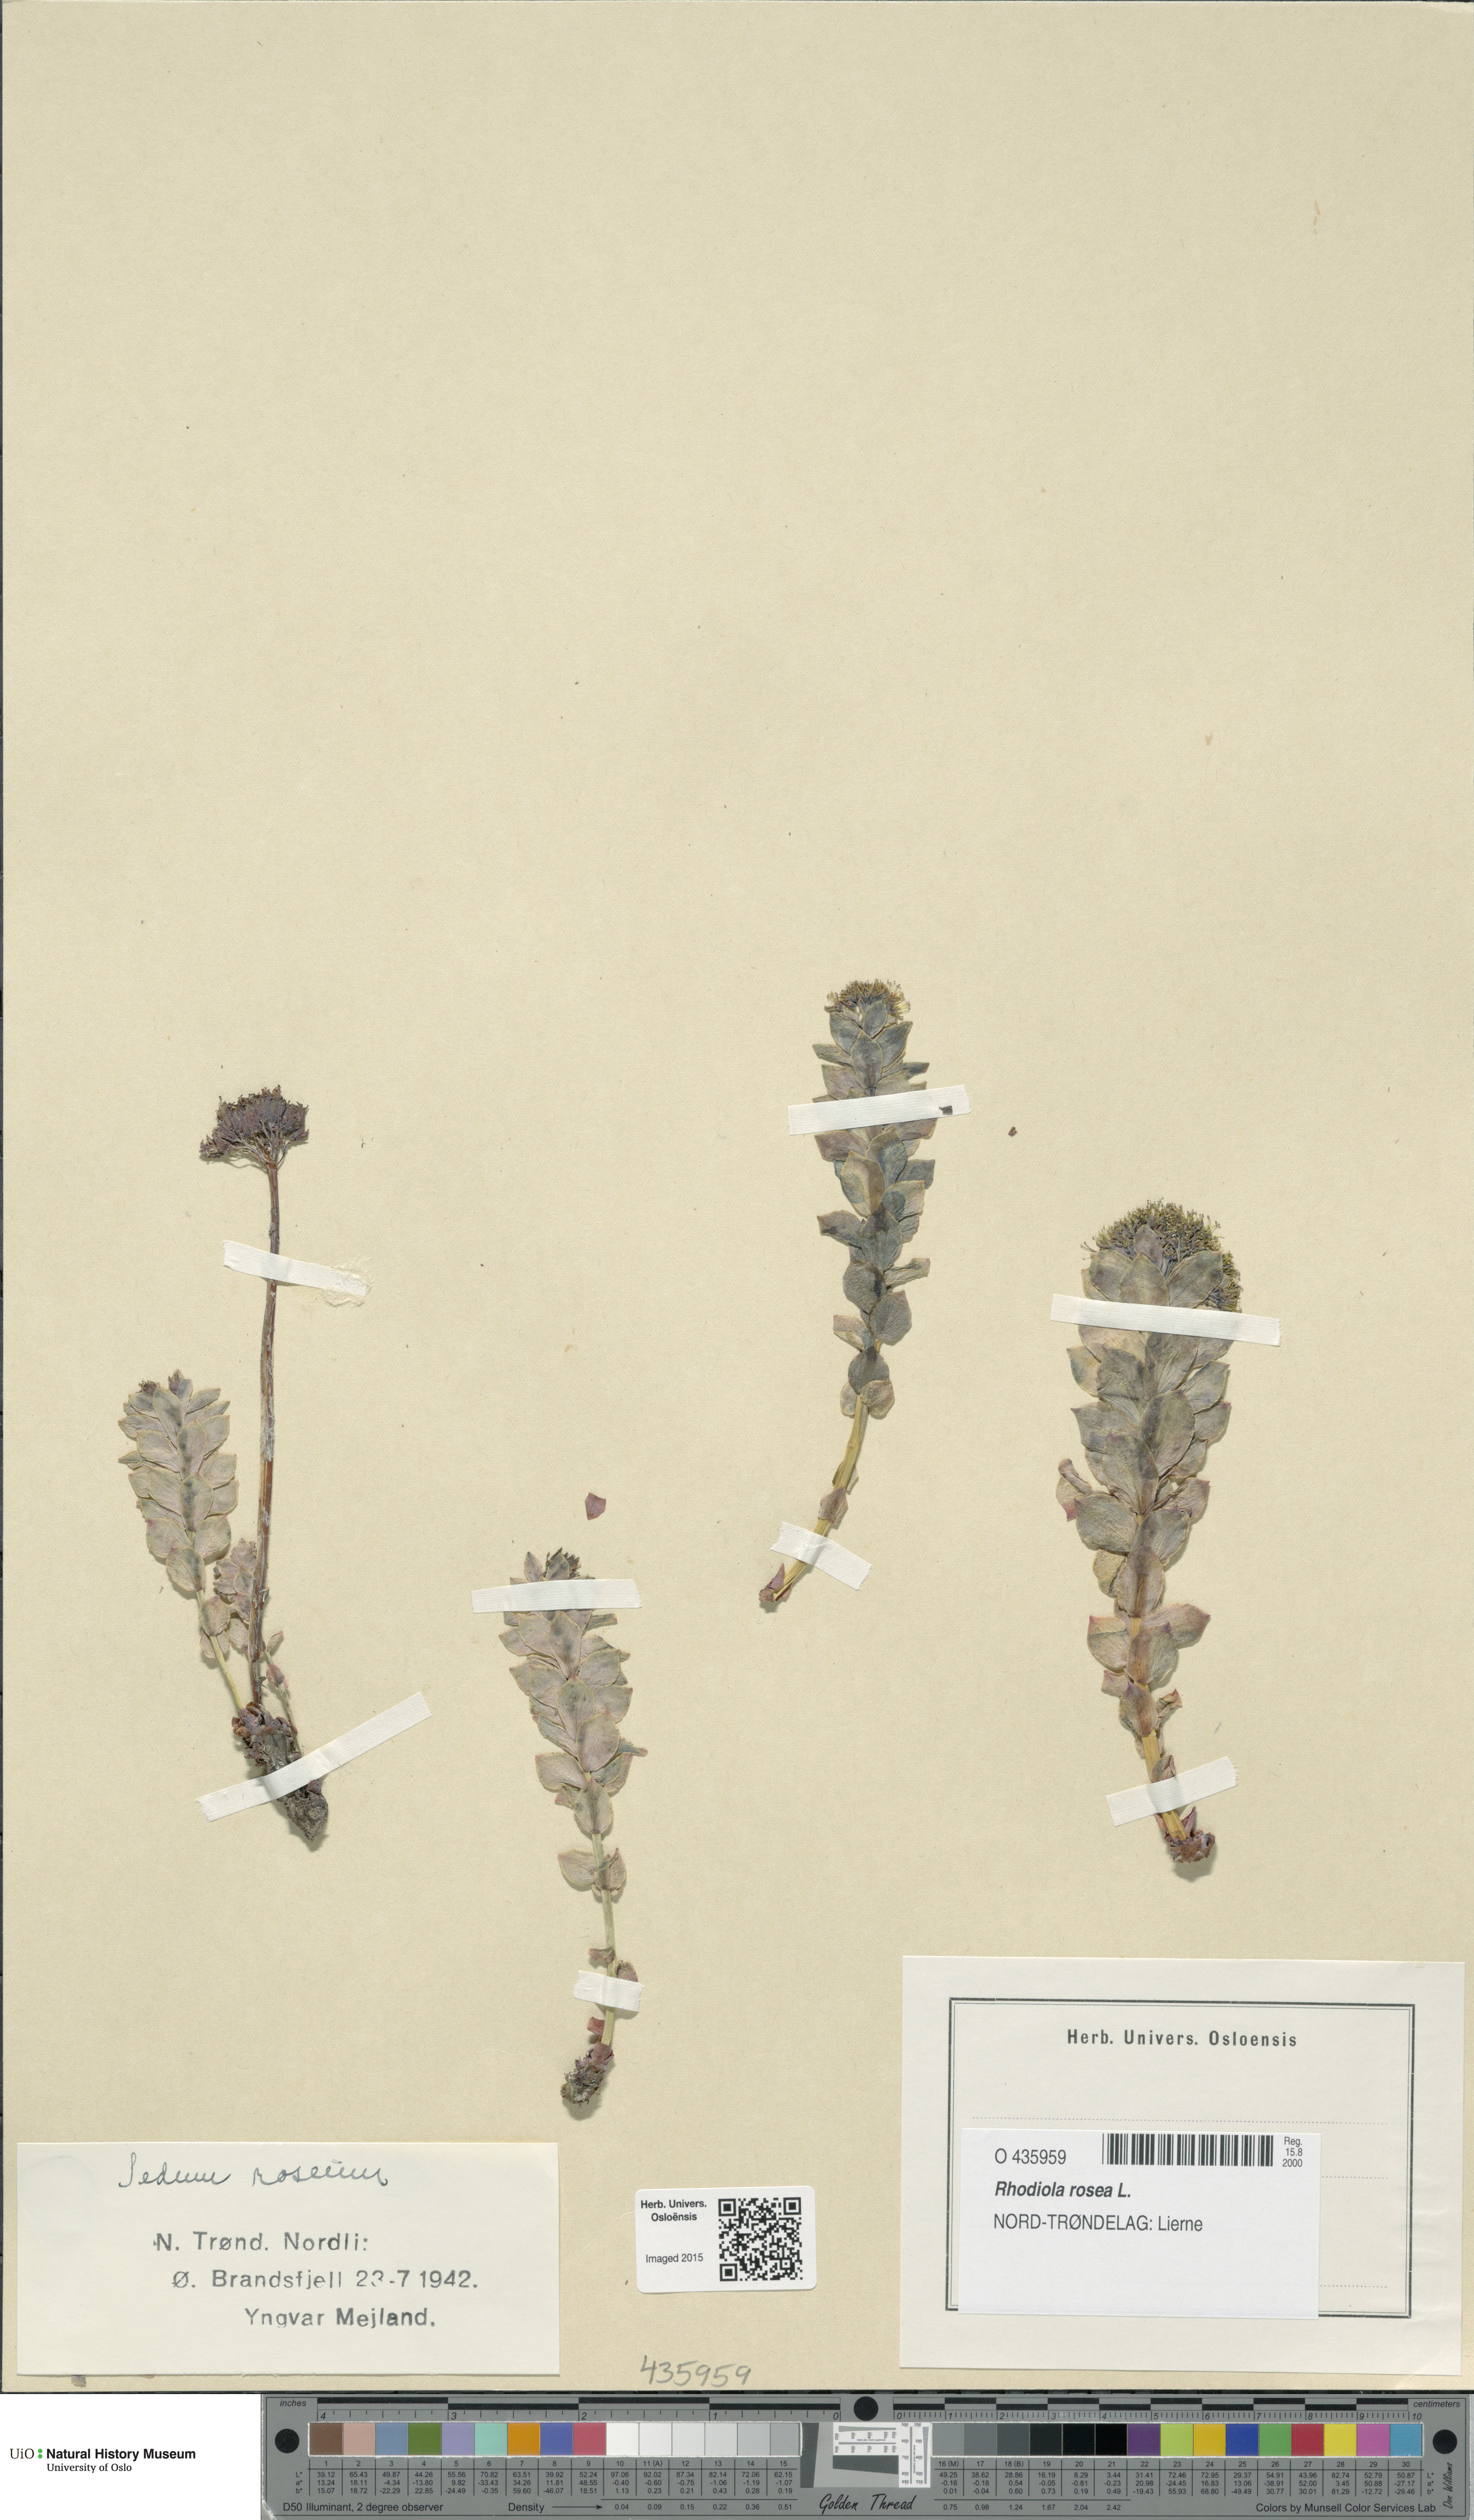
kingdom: Plantae
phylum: Tracheophyta
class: Magnoliopsida
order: Saxifragales
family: Crassulaceae
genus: Rhodiola
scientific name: Rhodiola rosea
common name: Roseroot
